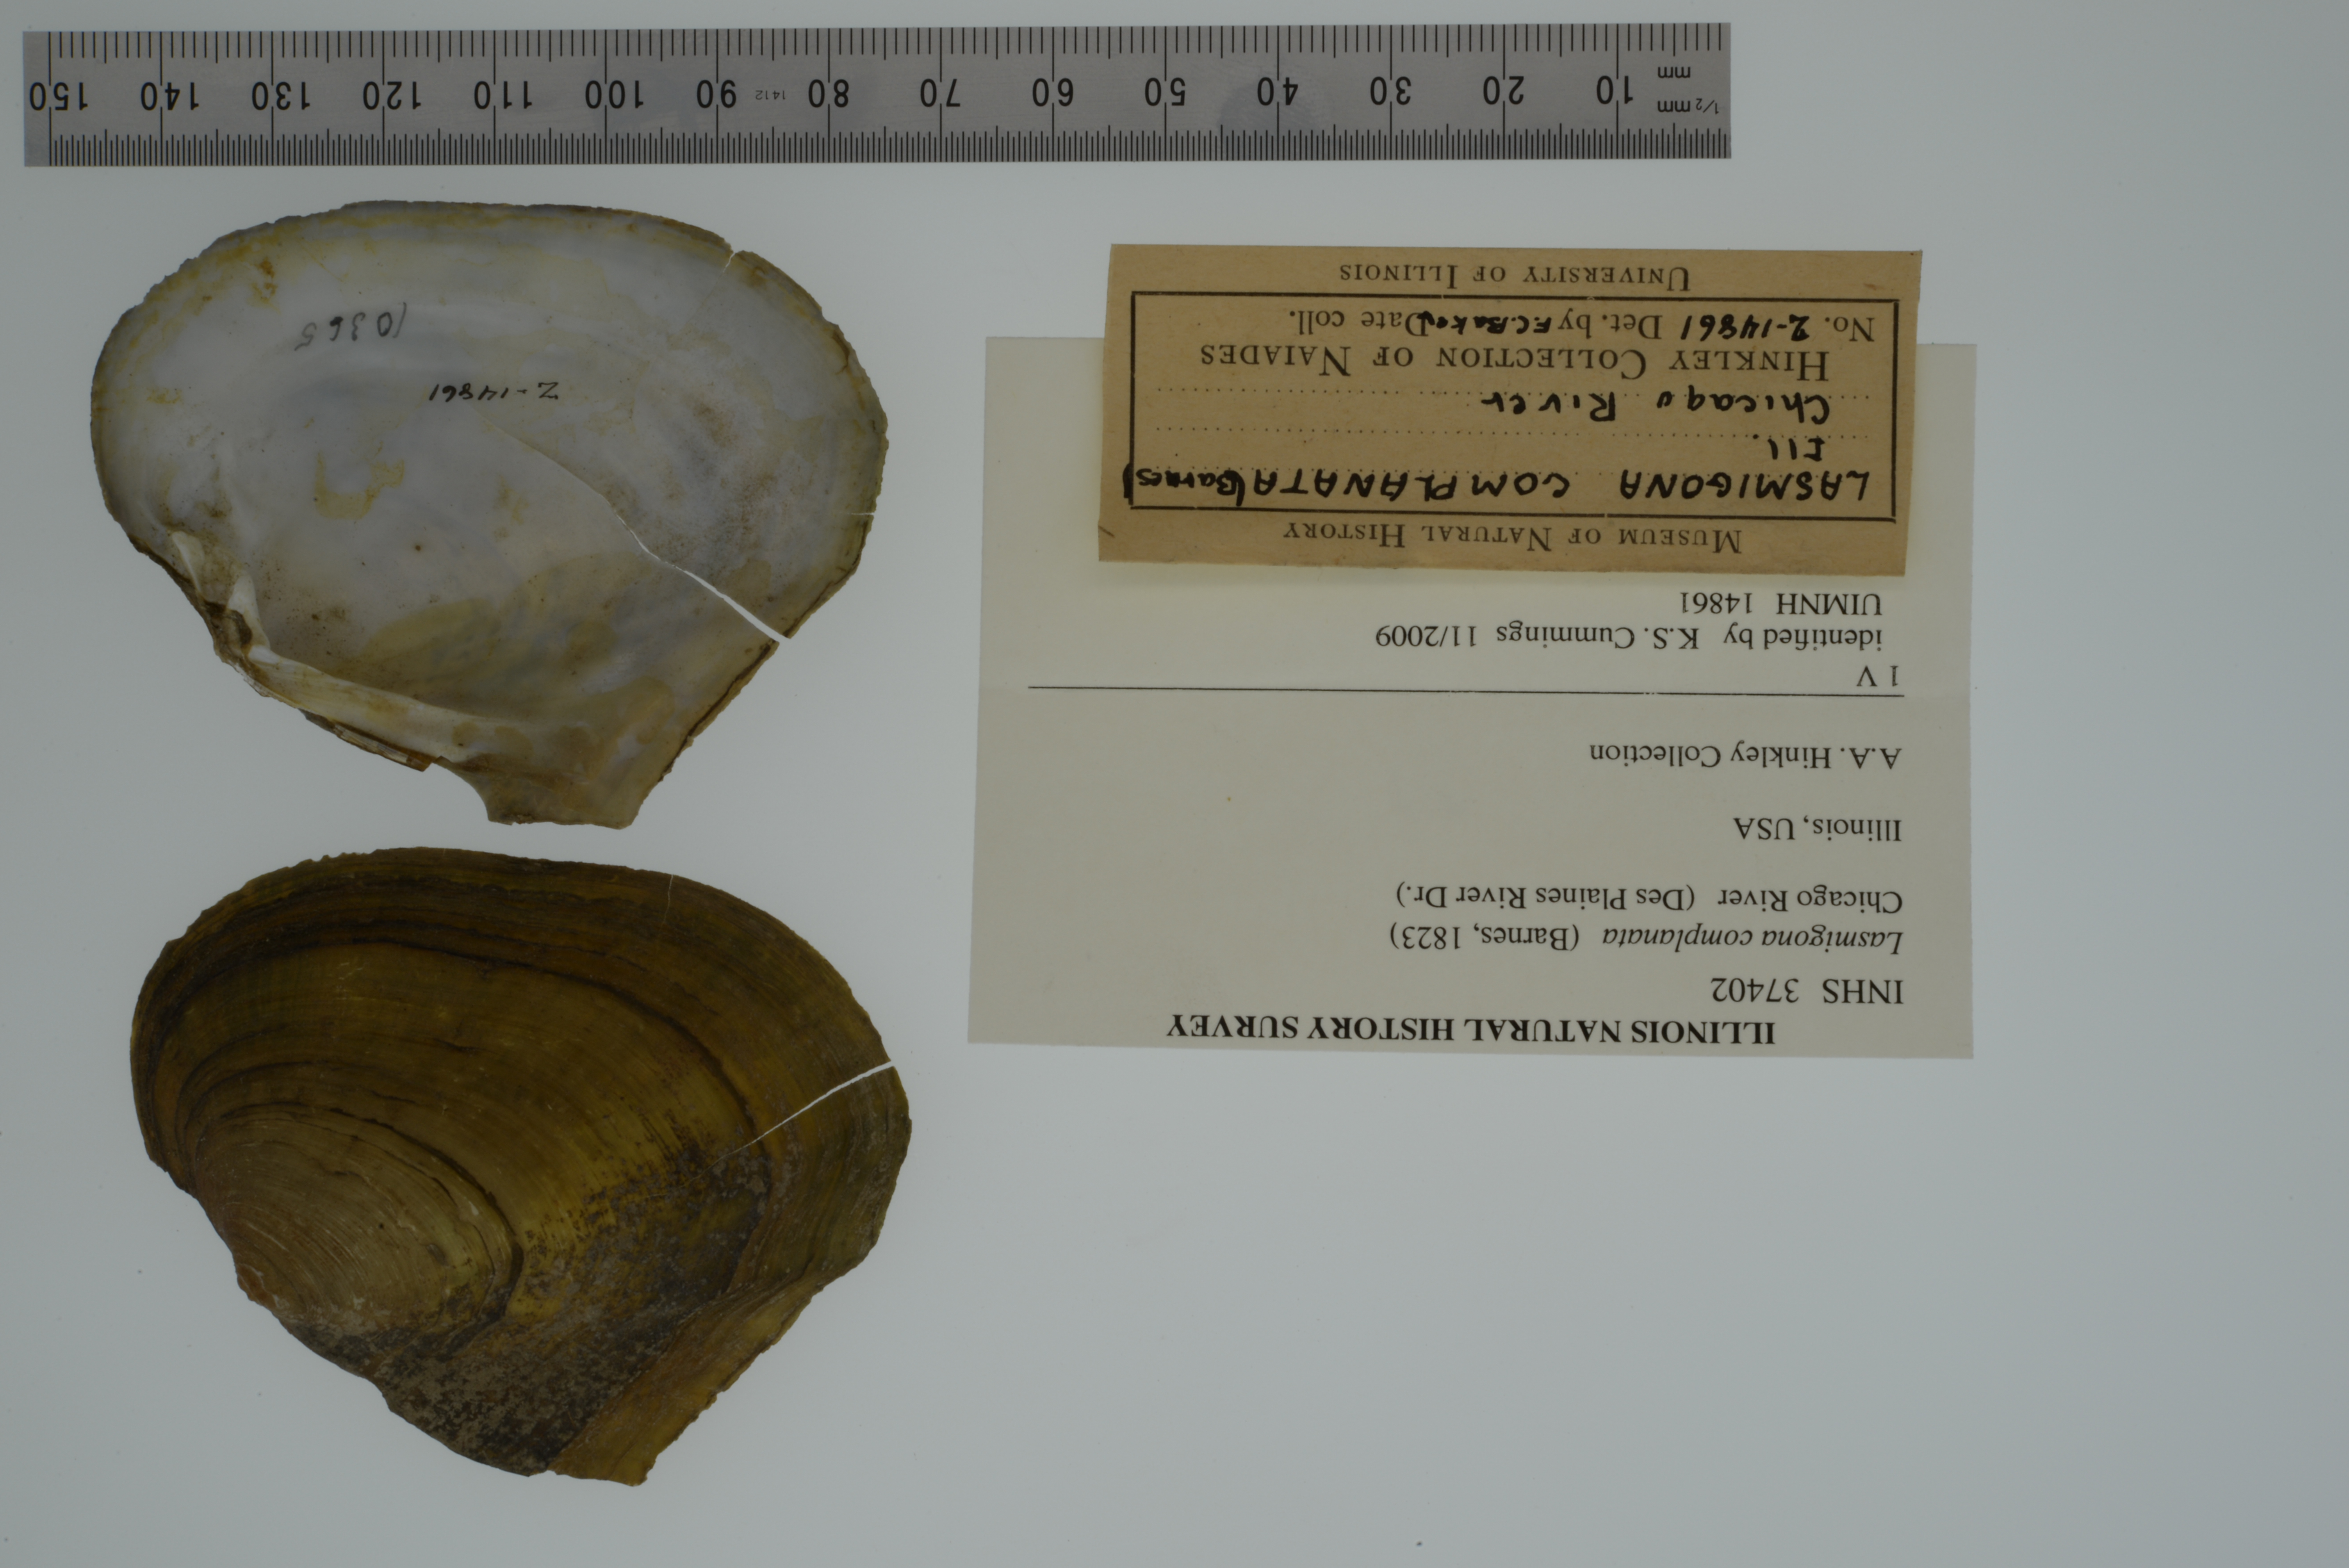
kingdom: Animalia
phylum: Mollusca
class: Bivalvia
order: Unionida
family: Unionidae
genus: Lasmigona
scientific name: Lasmigona complanata
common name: White heelsplitter
